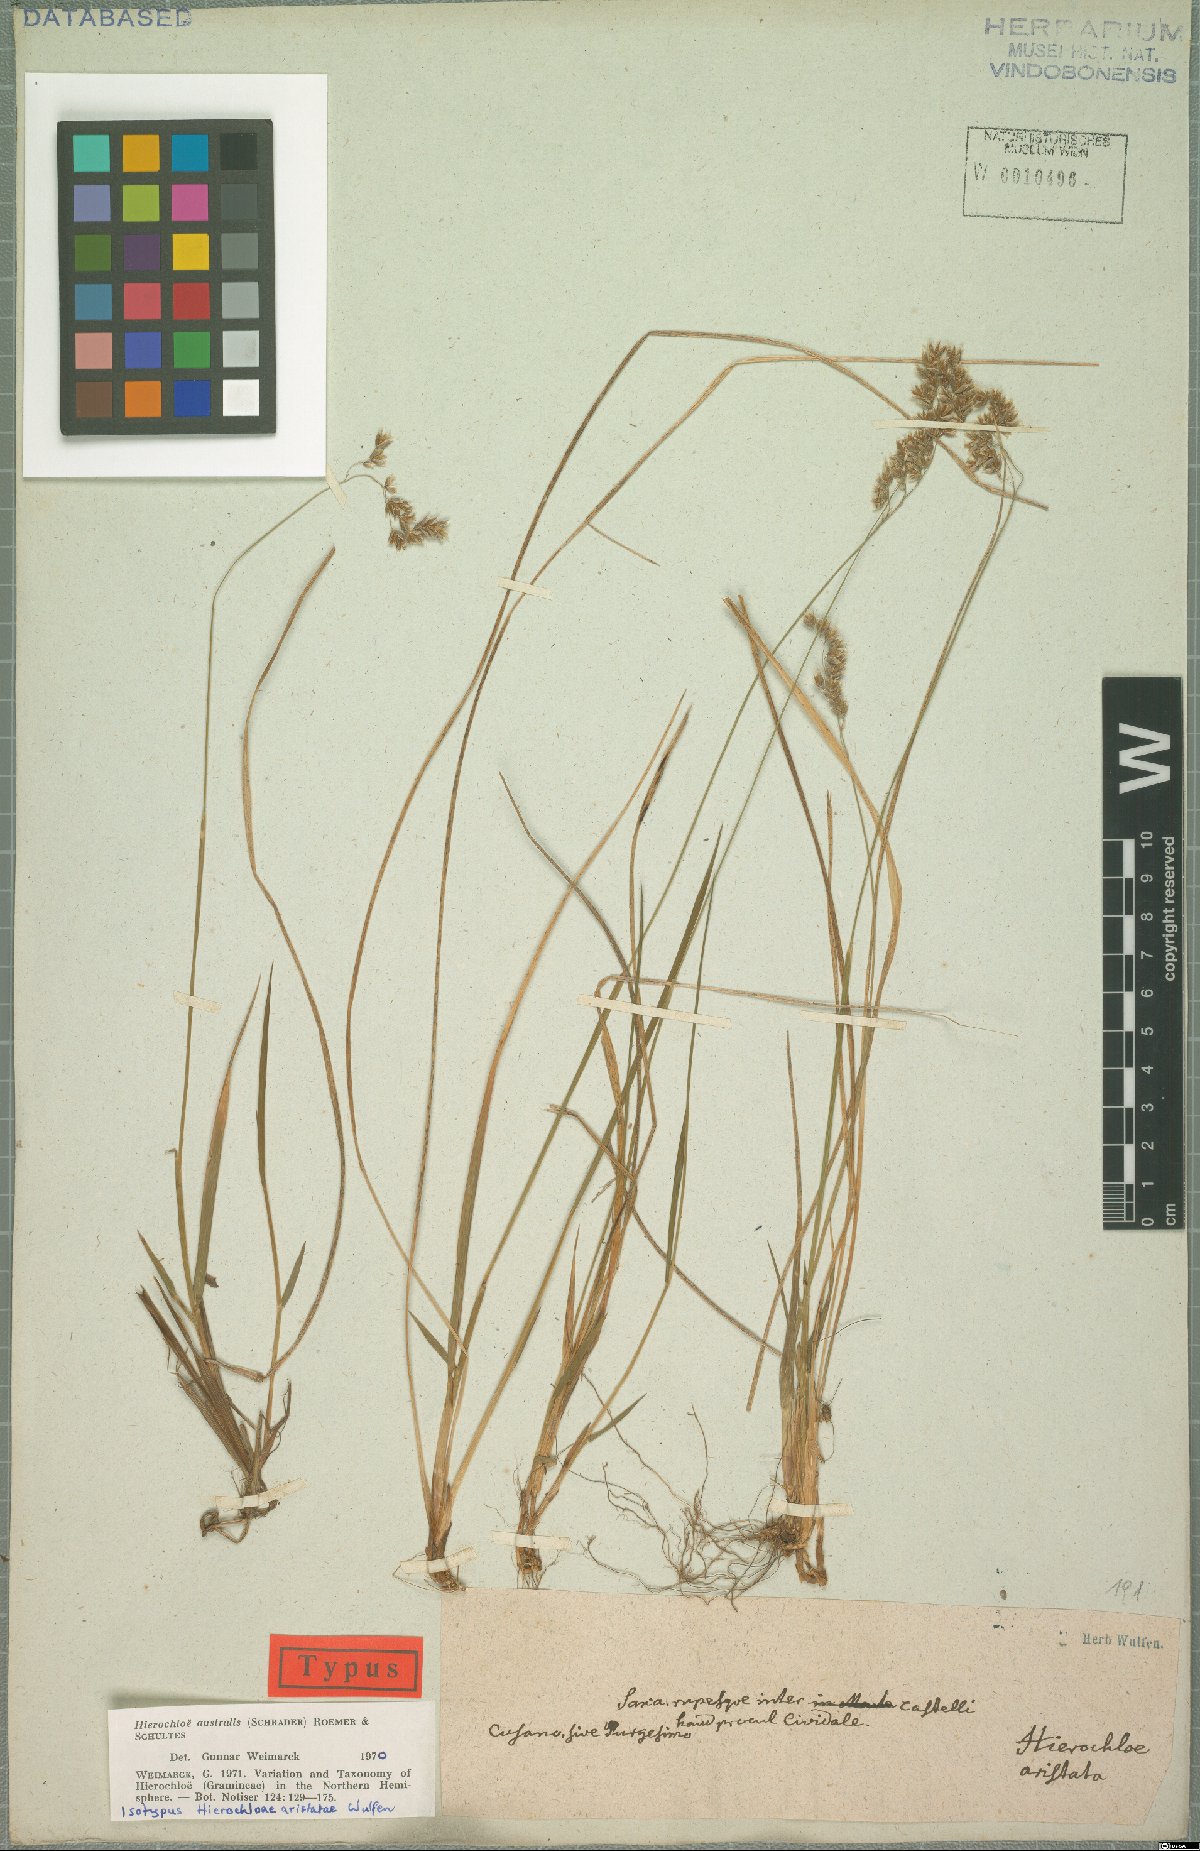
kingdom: Plantae
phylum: Tracheophyta
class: Liliopsida
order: Poales
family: Poaceae
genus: Anthoxanthum
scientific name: Anthoxanthum australe
